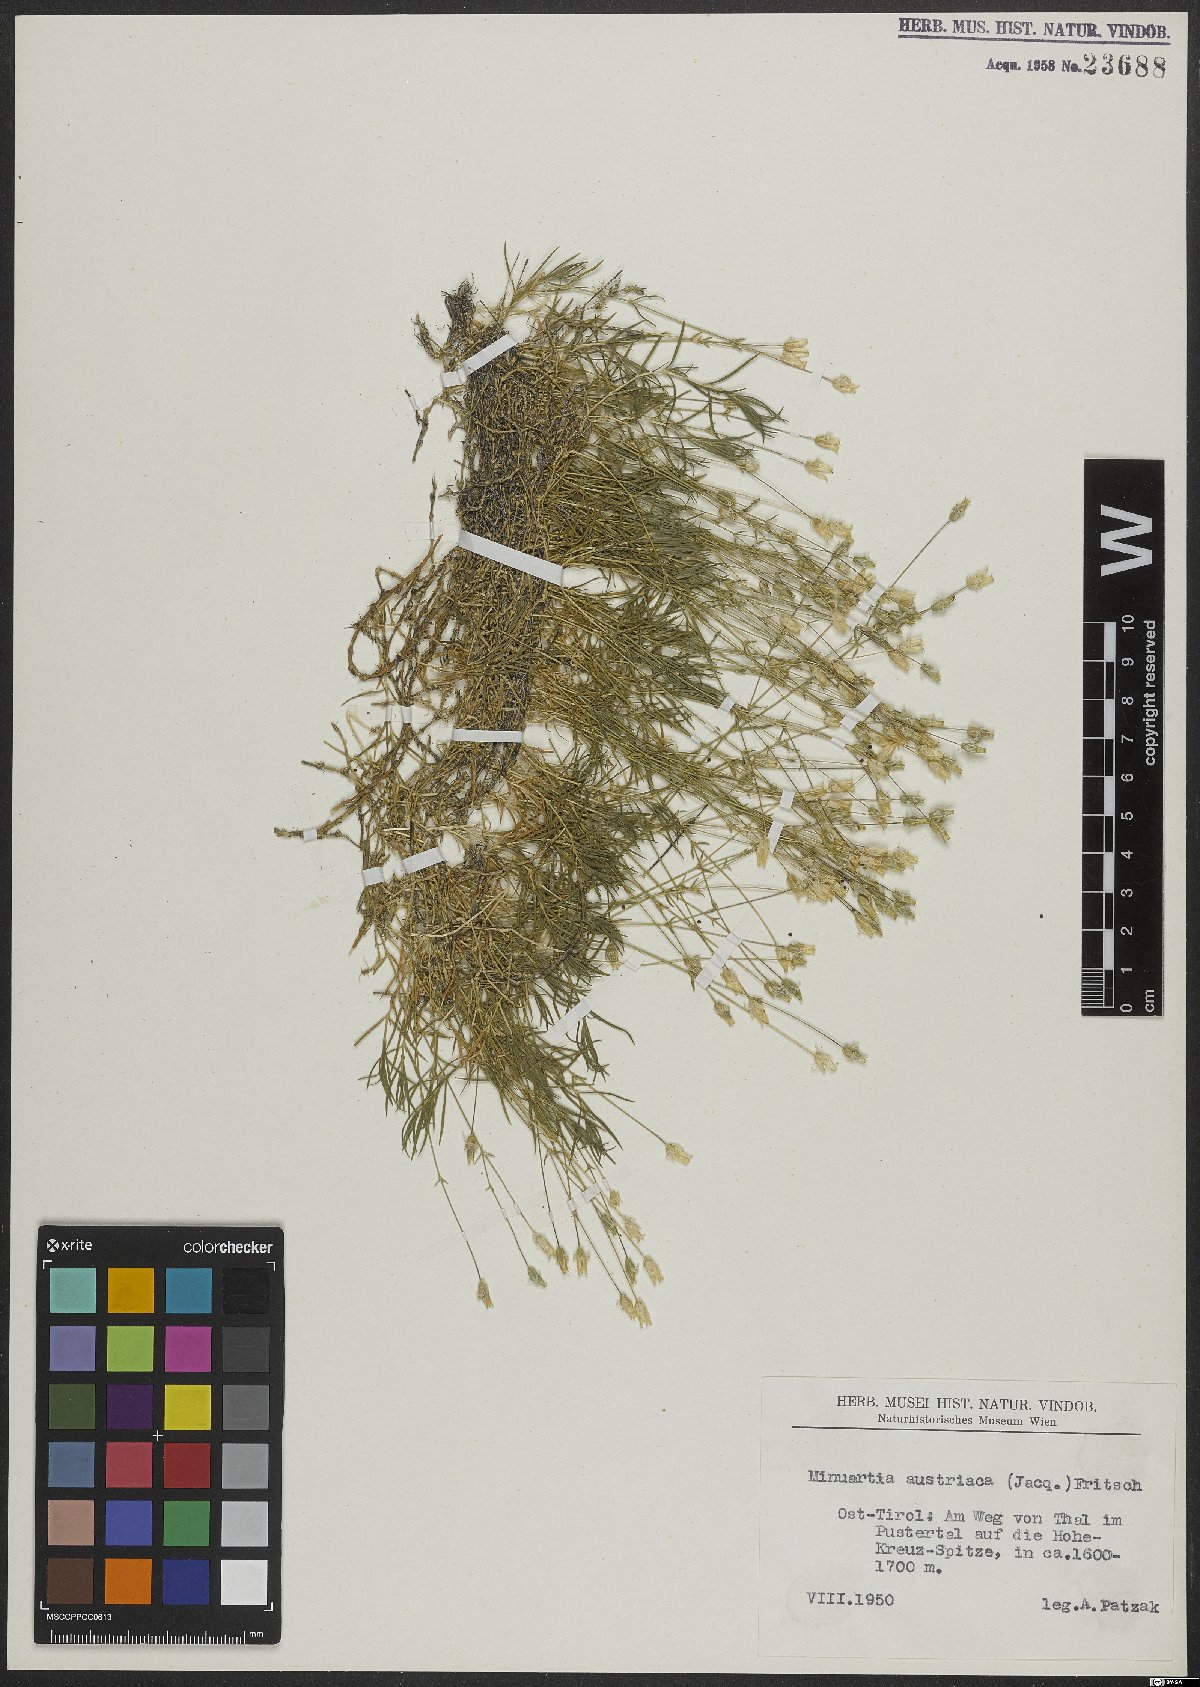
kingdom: Plantae
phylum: Tracheophyta
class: Magnoliopsida
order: Caryophyllales
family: Caryophyllaceae
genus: Sabulina
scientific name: Sabulina austriaca
